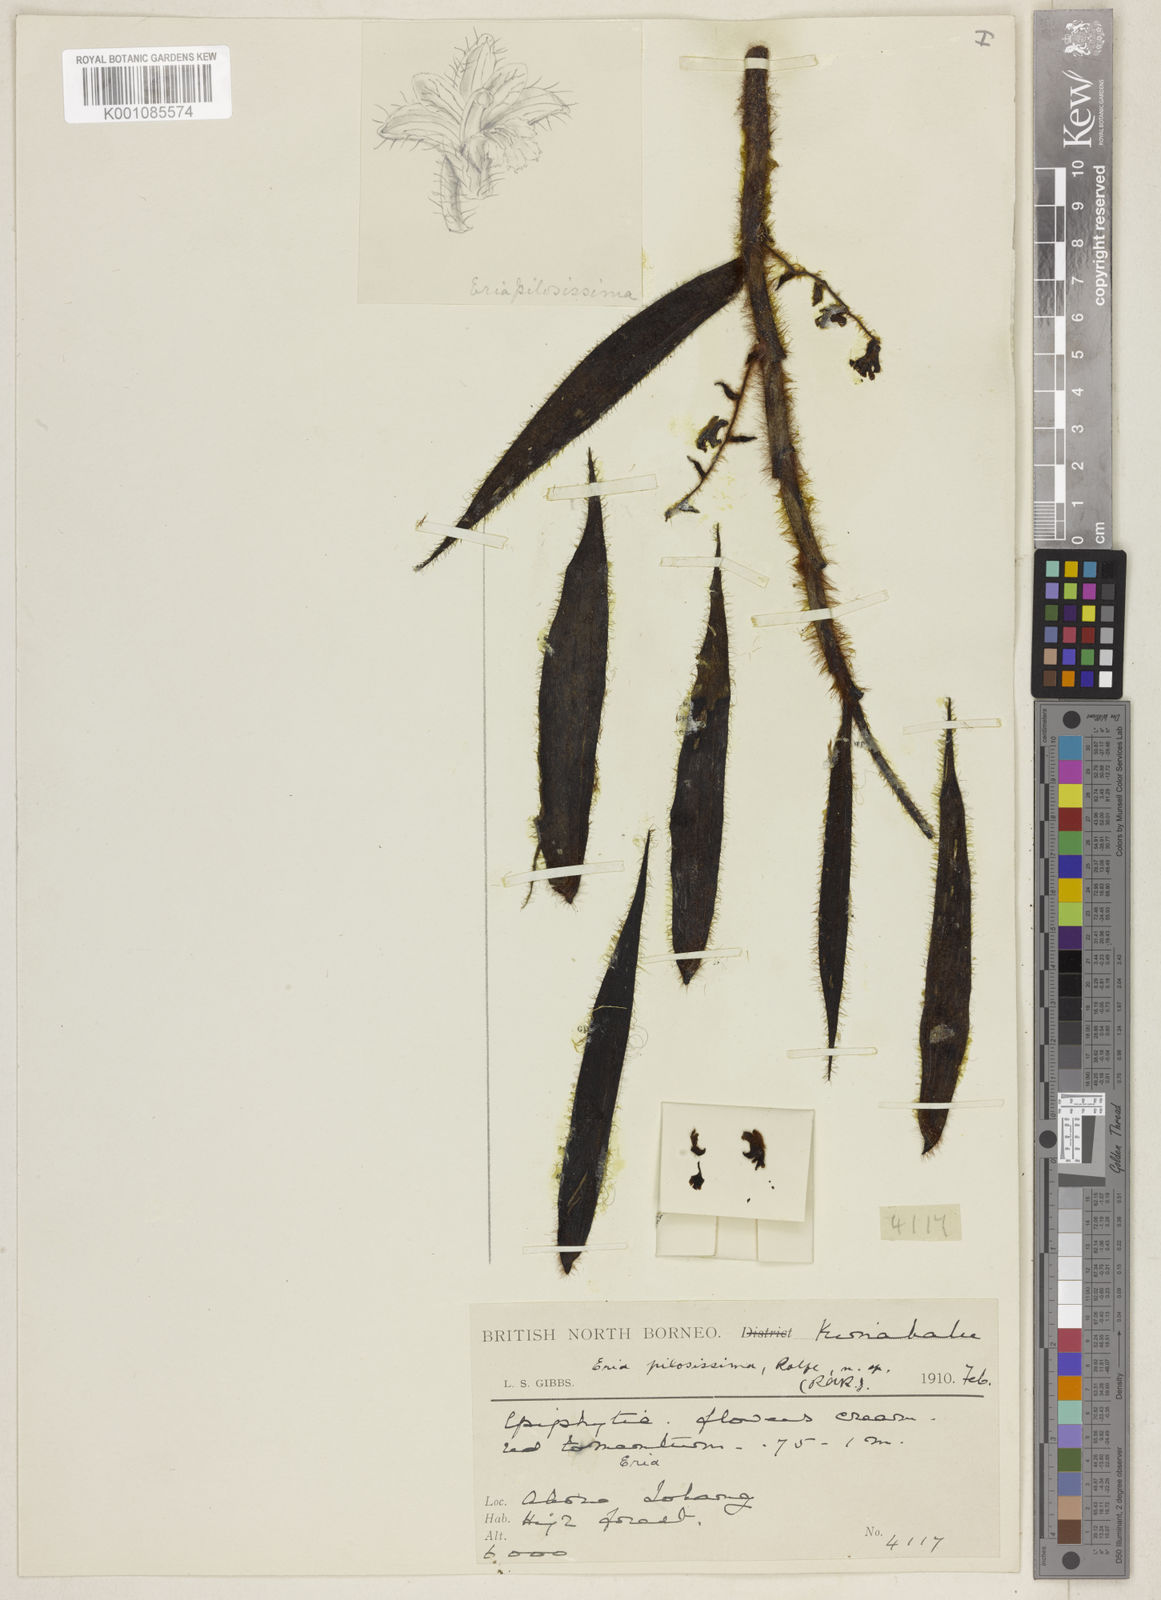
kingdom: Plantae
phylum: Tracheophyta
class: Liliopsida
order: Asparagales
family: Orchidaceae
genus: Trichotosia
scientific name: Trichotosia pilosissima
